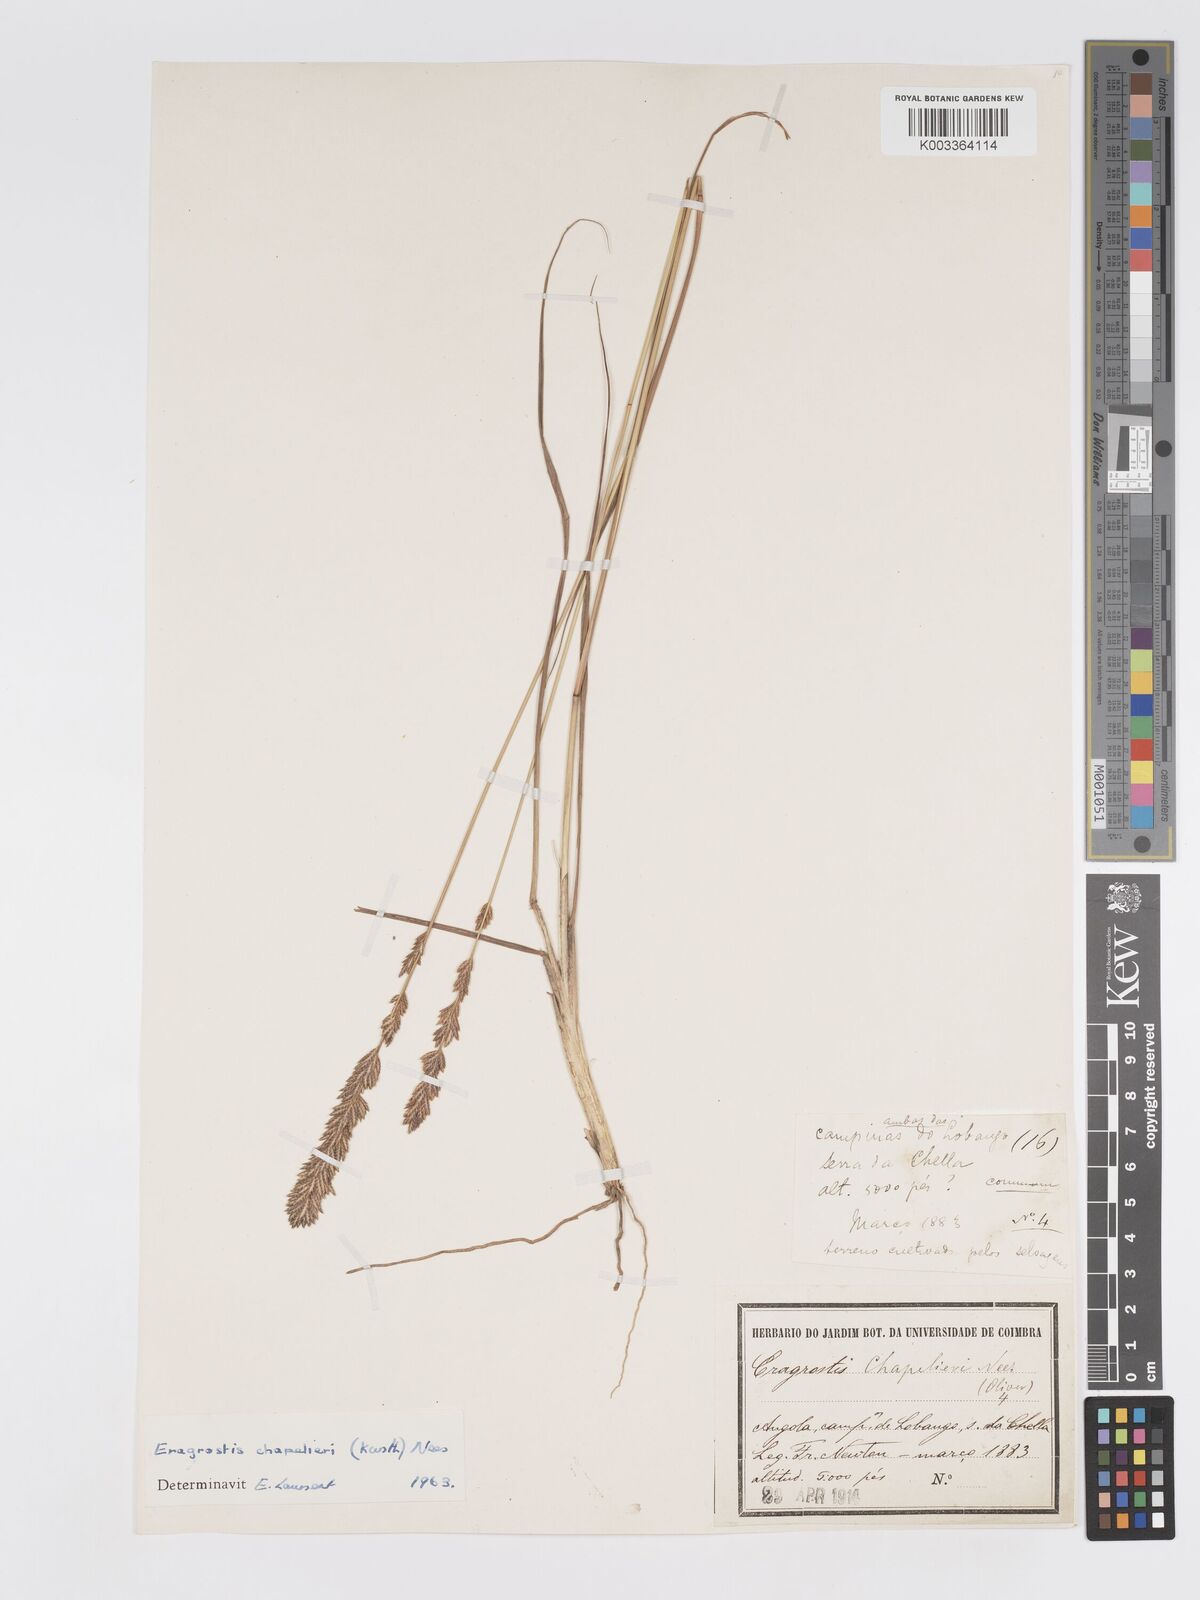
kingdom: Plantae
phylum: Tracheophyta
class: Liliopsida
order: Poales
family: Poaceae
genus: Eragrostis
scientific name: Eragrostis chapelieri
